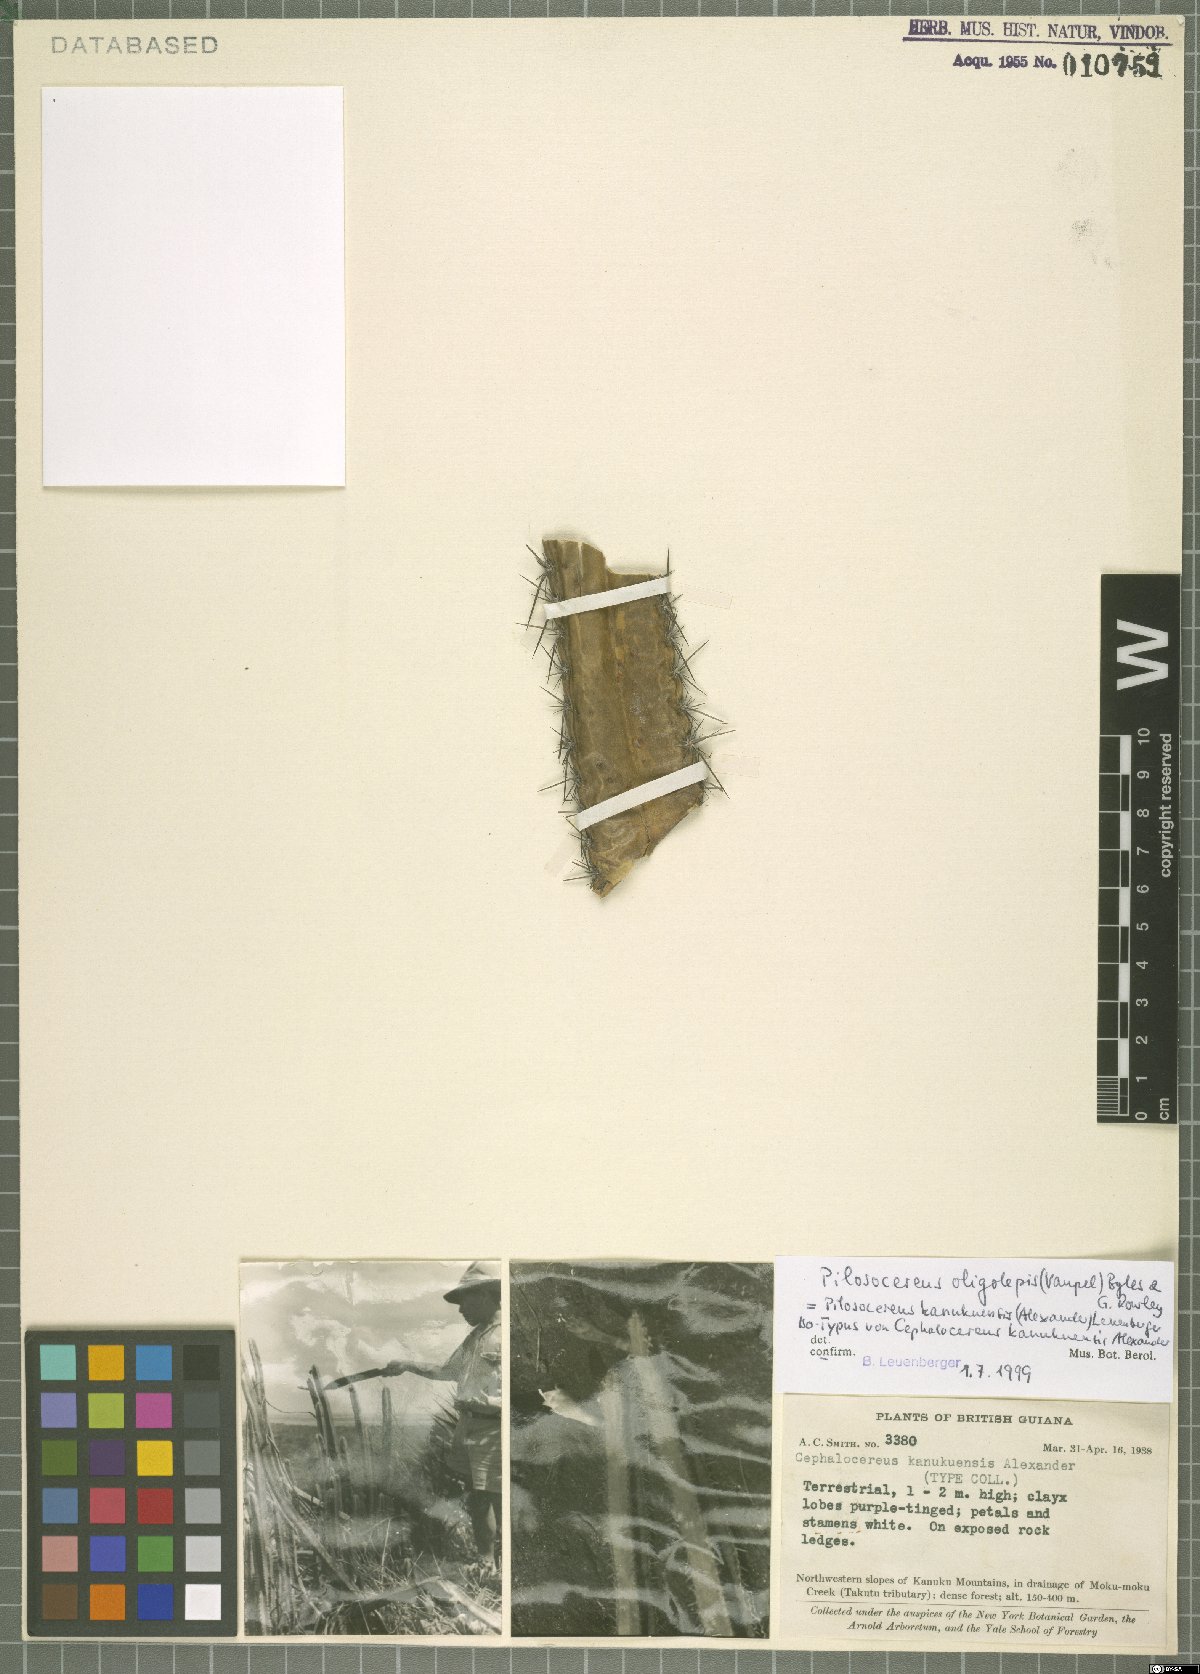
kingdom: Plantae
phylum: Tracheophyta
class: Magnoliopsida
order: Caryophyllales
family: Cactaceae
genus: Pilosocereus
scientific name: Pilosocereus oligolepis
